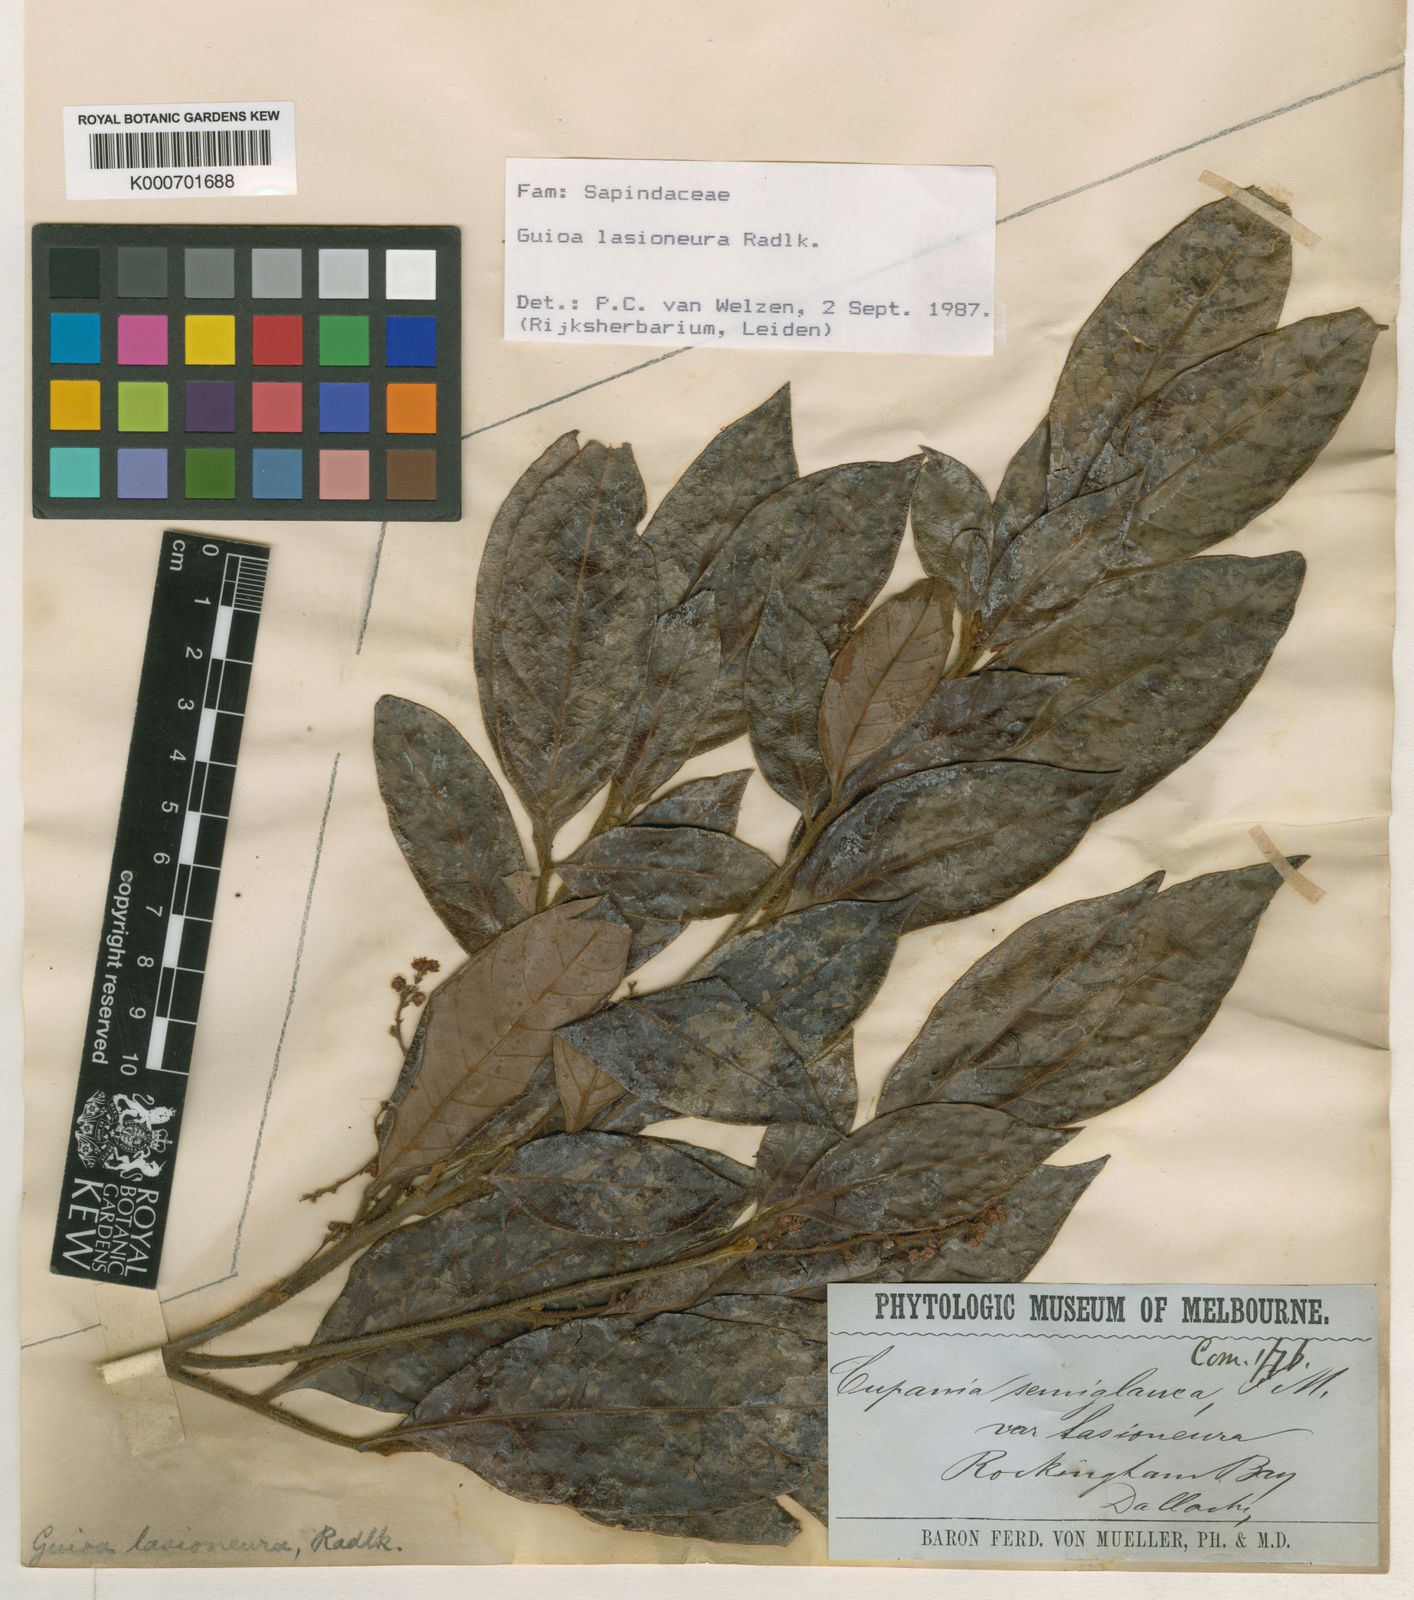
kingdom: Plantae
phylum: Tracheophyta
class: Magnoliopsida
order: Sapindales
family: Sapindaceae
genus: Guioa
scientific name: Guioa lasioneura
